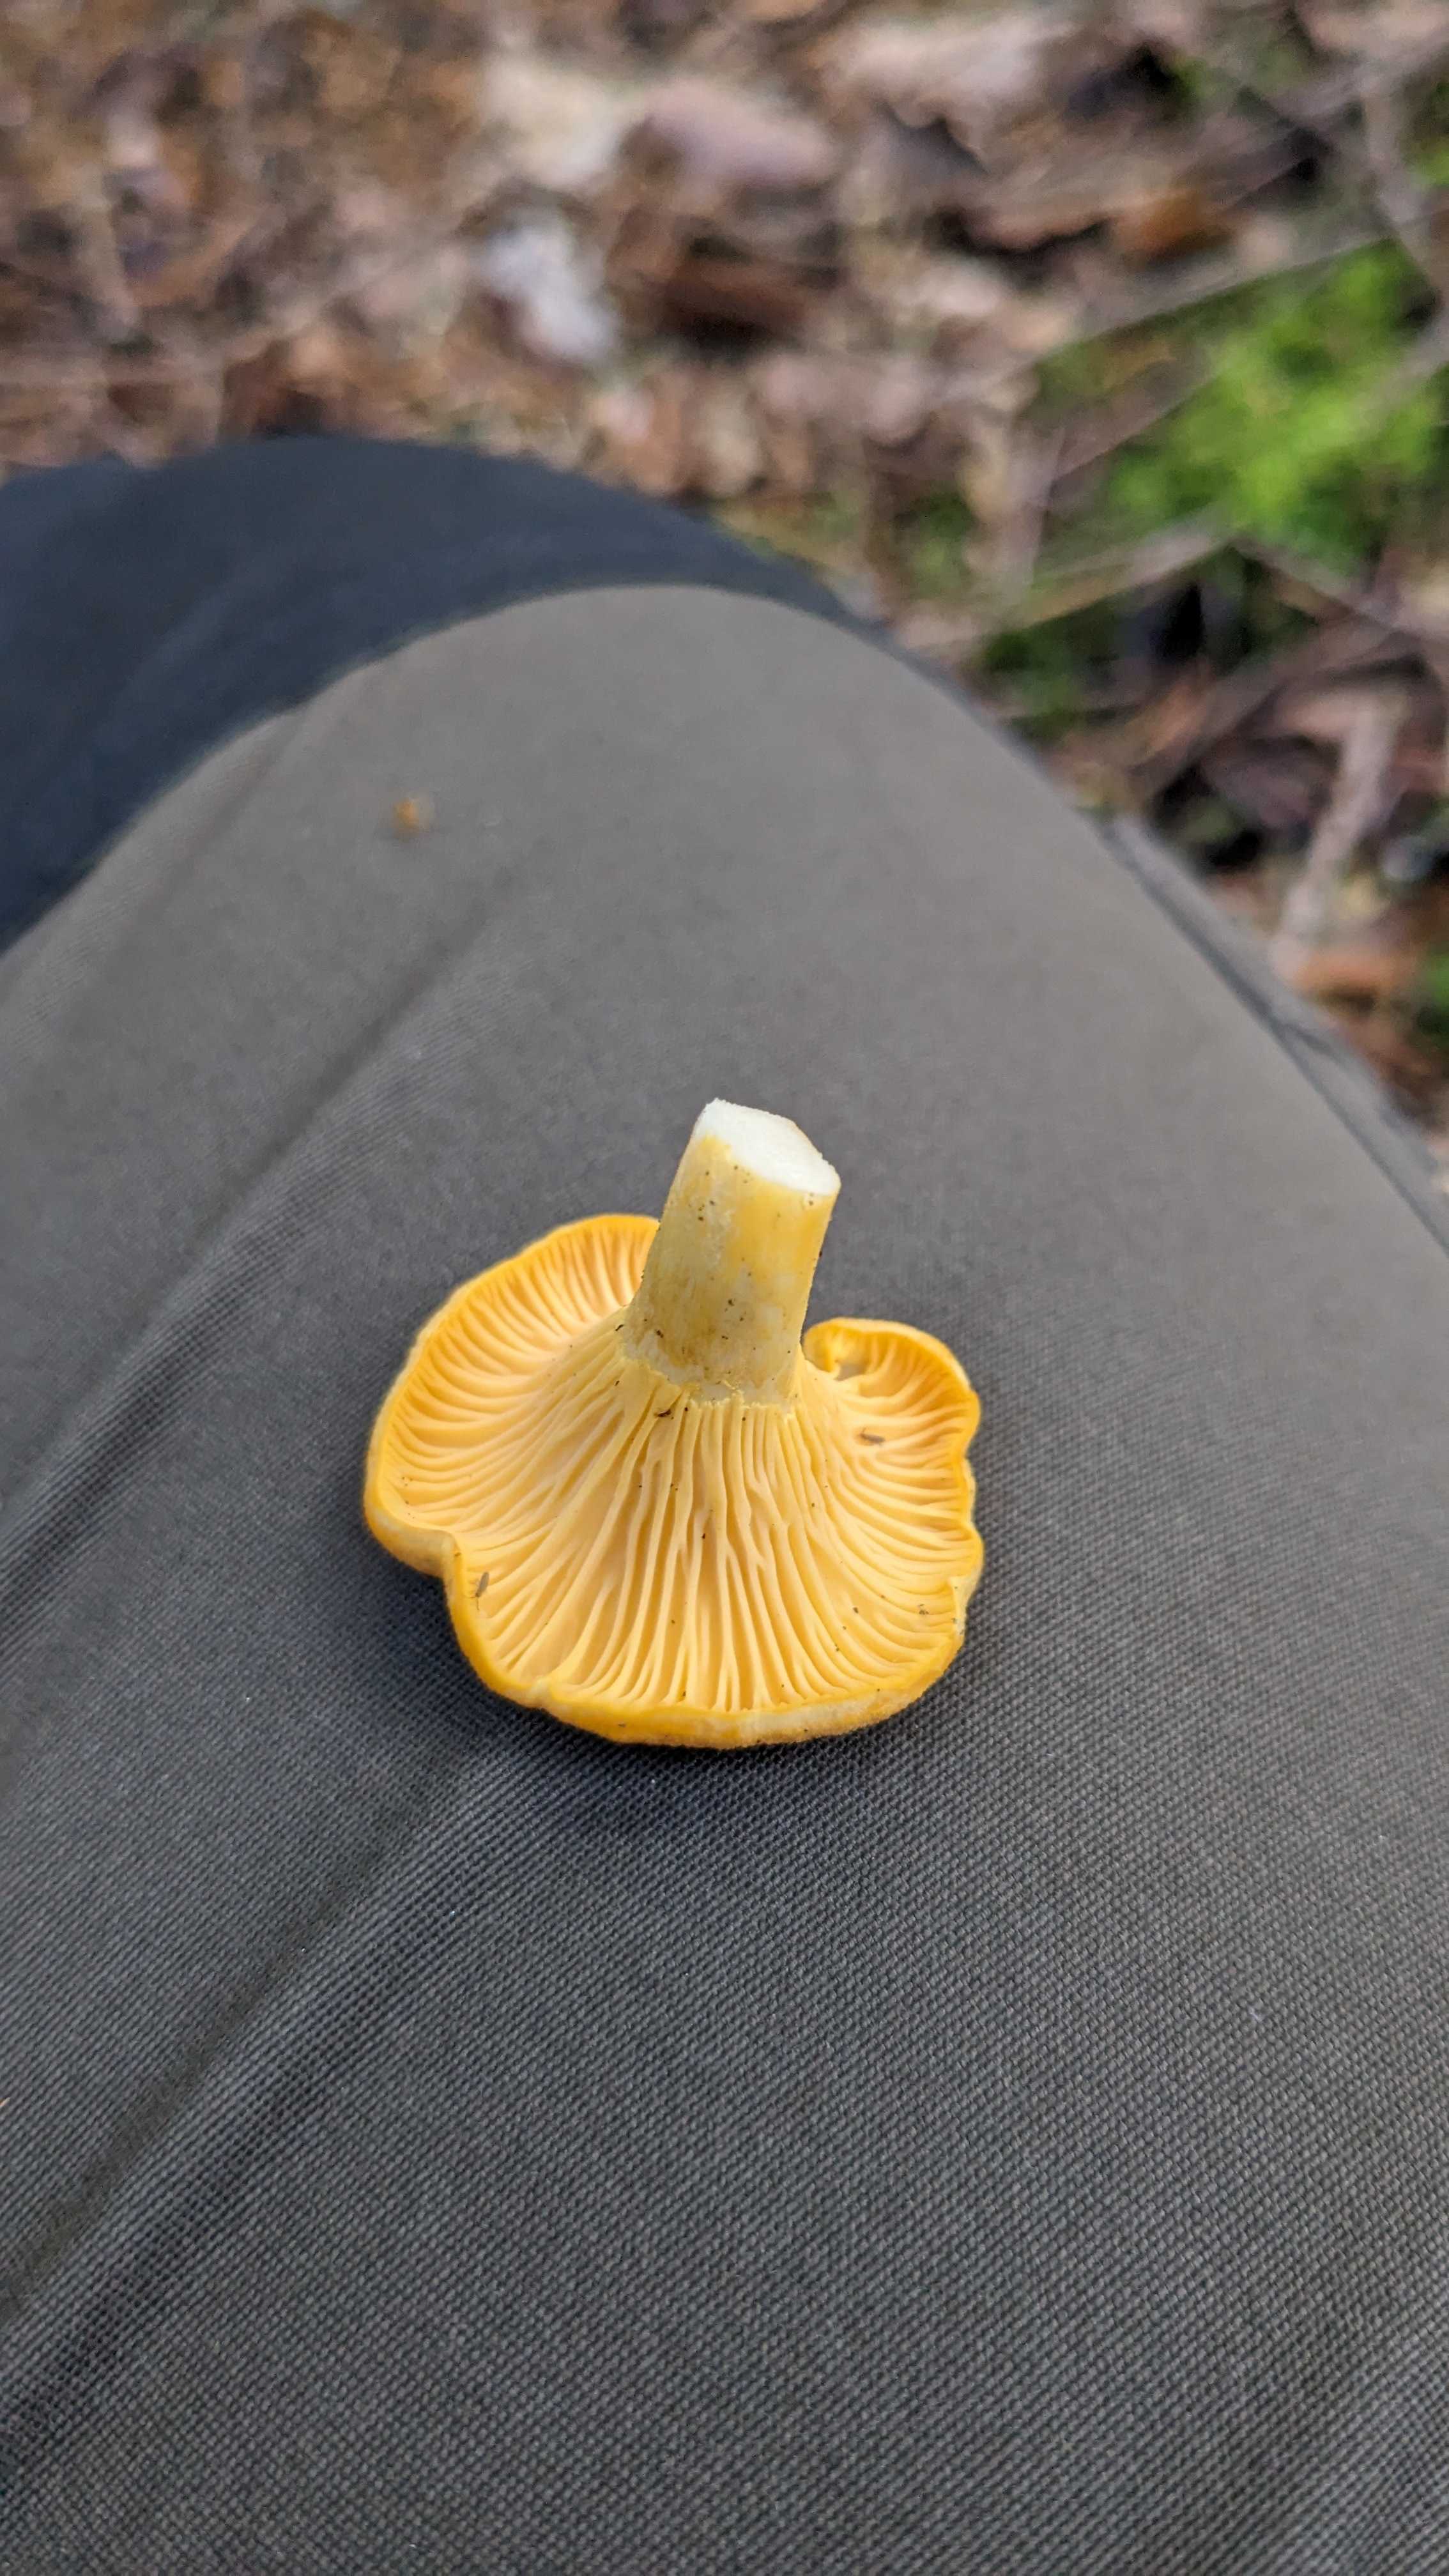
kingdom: Fungi
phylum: Basidiomycota
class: Agaricomycetes
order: Cantharellales
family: Hydnaceae
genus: Cantharellus
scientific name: Cantharellus cibarius
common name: almindelig kantarel
